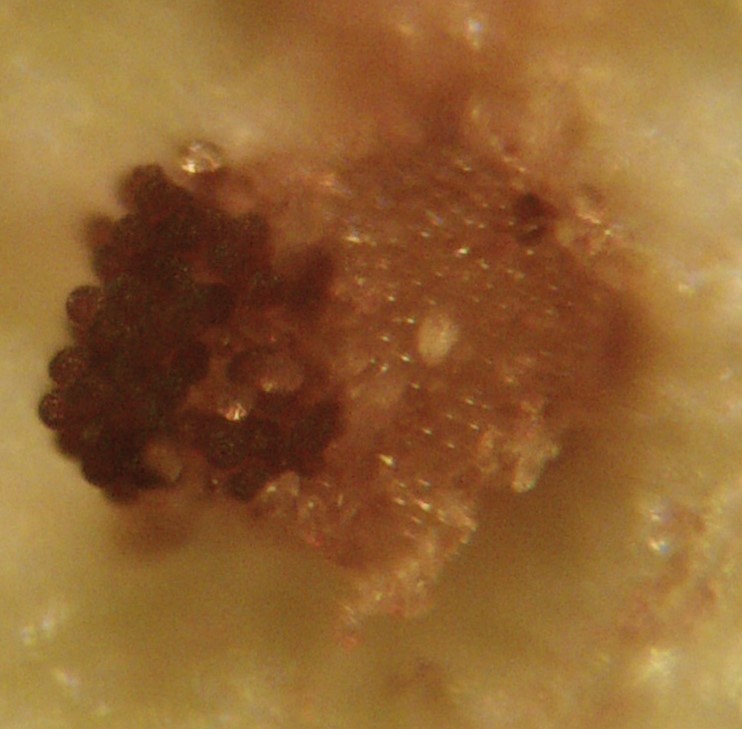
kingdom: Fungi
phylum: Basidiomycota
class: Pucciniomycetes
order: Pucciniales
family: Tranzscheliaceae
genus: Tranzschelia
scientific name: Tranzschelia
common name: knæksporerust
